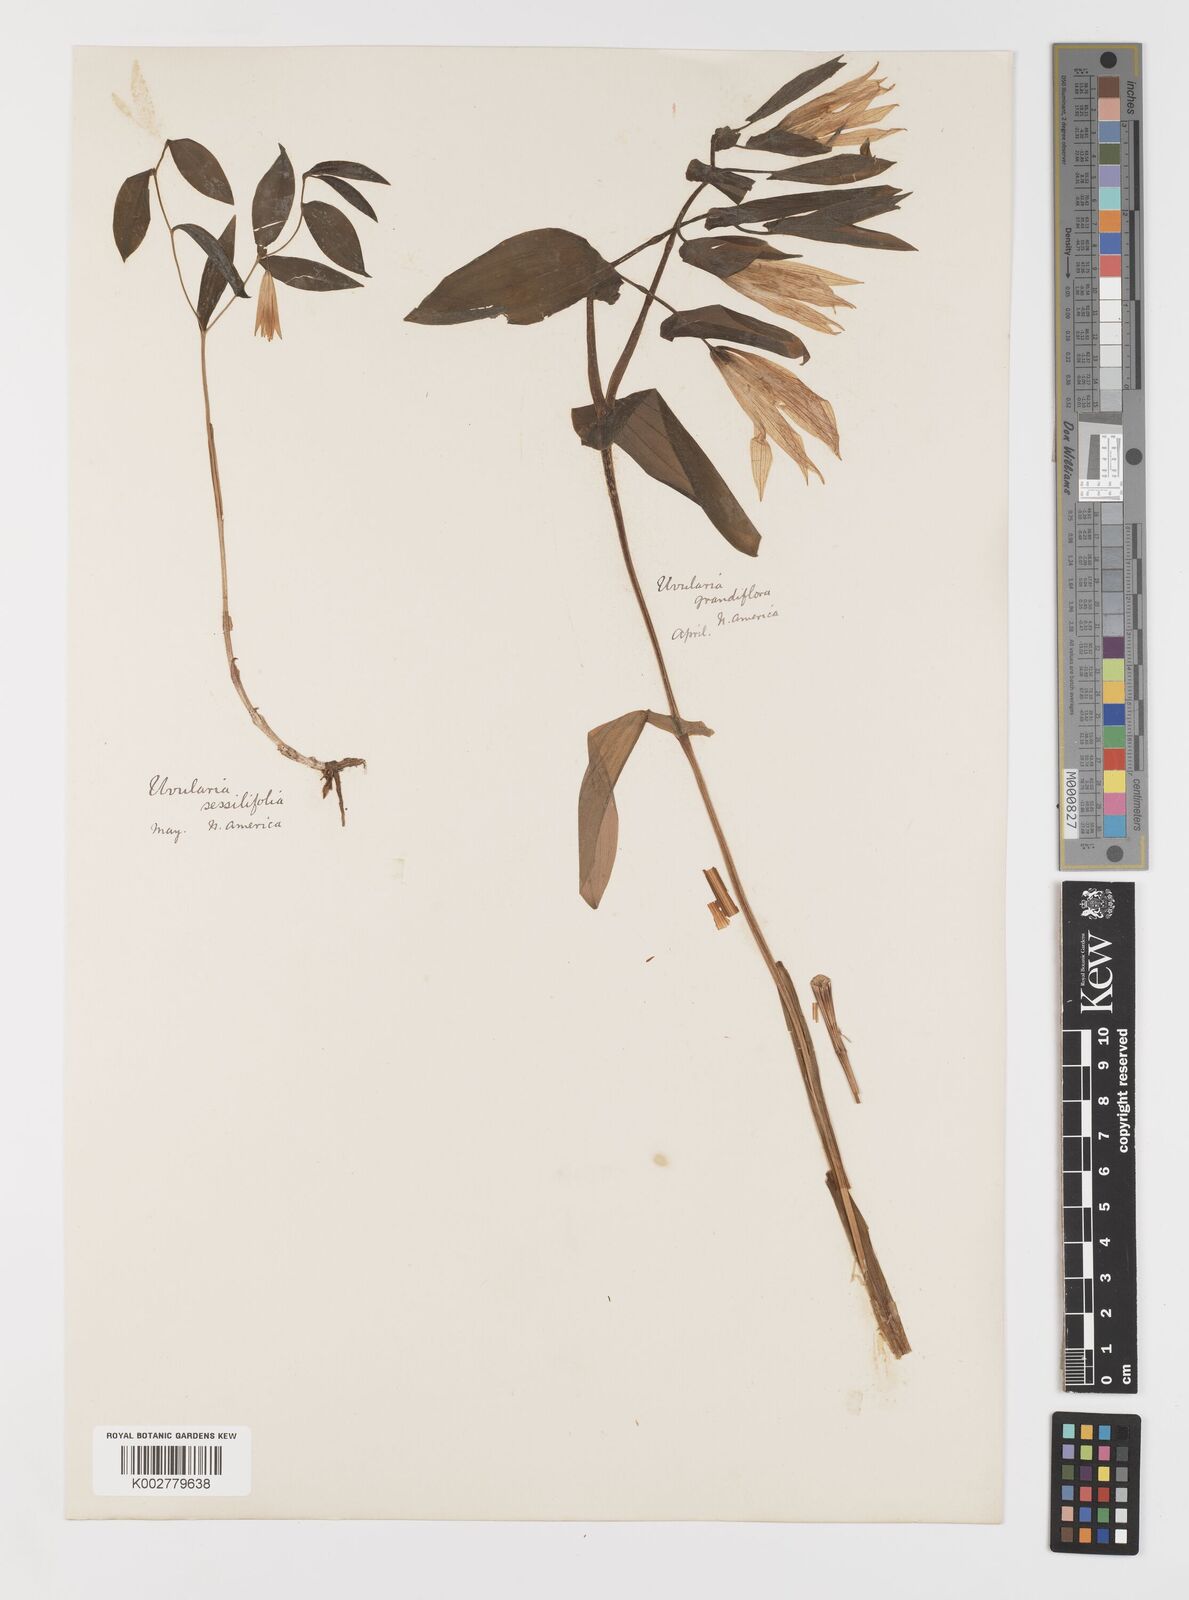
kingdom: Plantae
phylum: Tracheophyta
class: Liliopsida
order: Liliales
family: Colchicaceae
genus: Uvularia
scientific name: Uvularia grandiflora
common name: Bellwort
